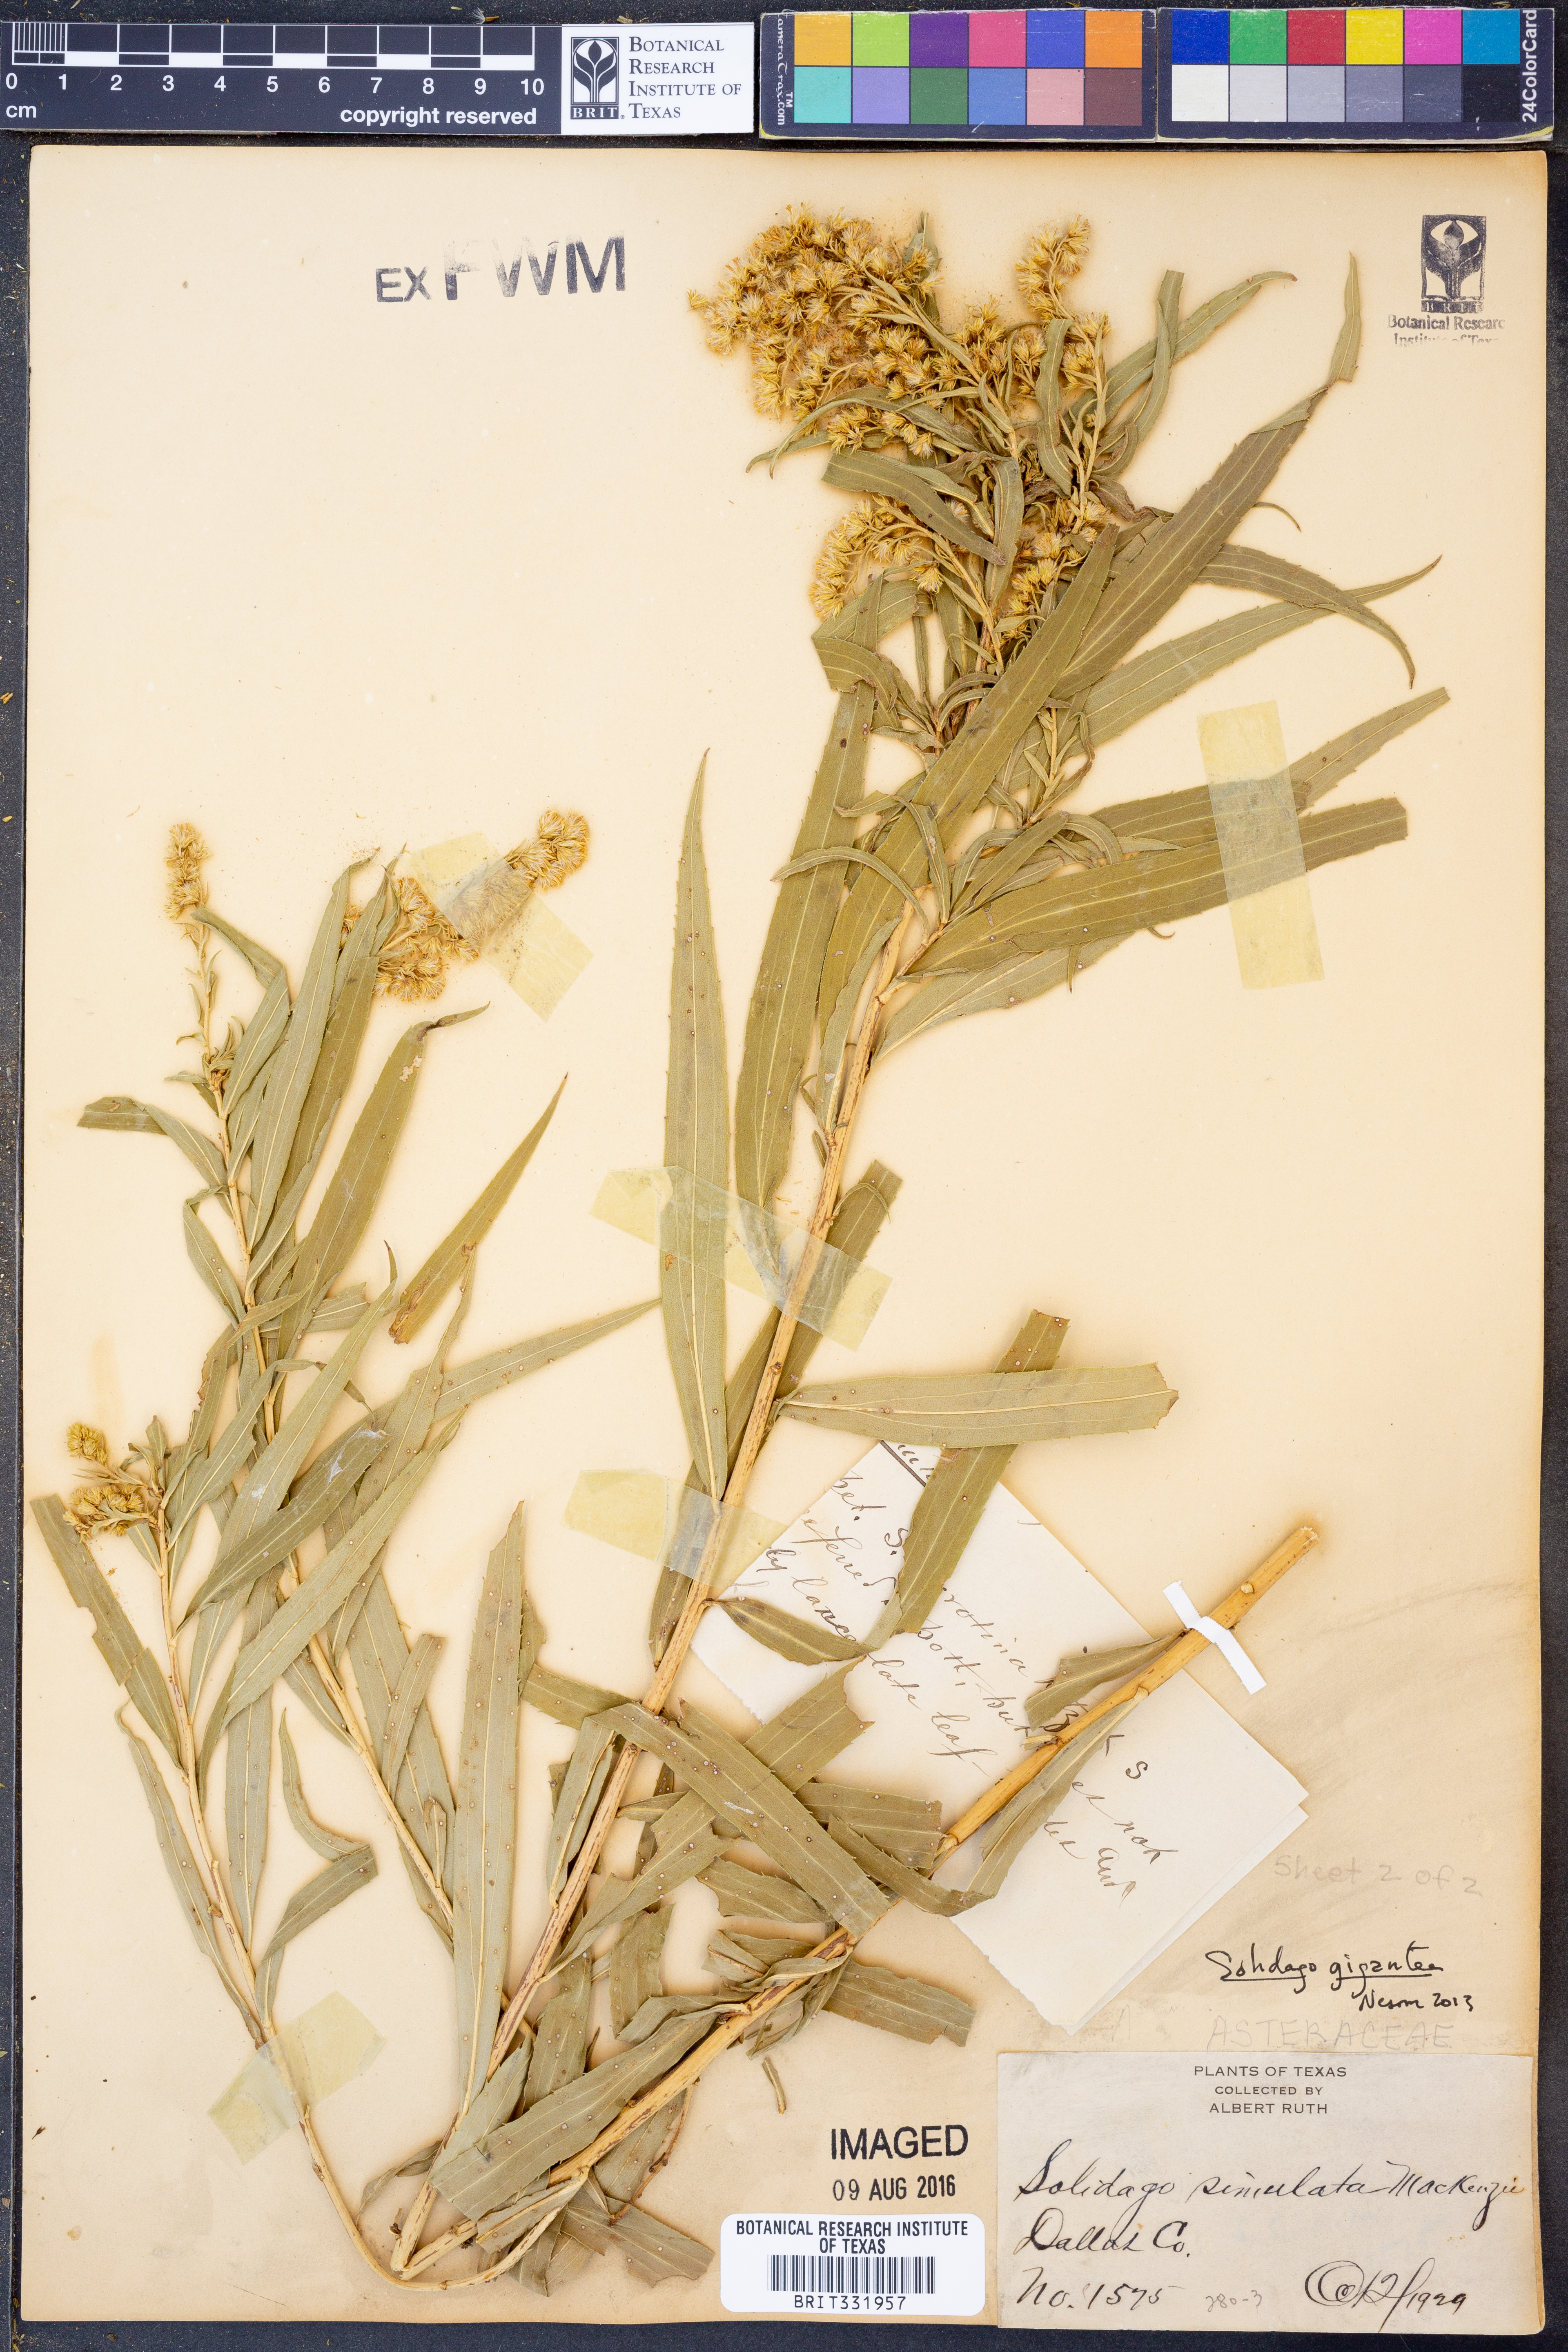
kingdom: Plantae
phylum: Tracheophyta
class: Magnoliopsida
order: Asterales
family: Asteraceae
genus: Solidago
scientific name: Solidago gigantea
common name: Giant goldenrod
